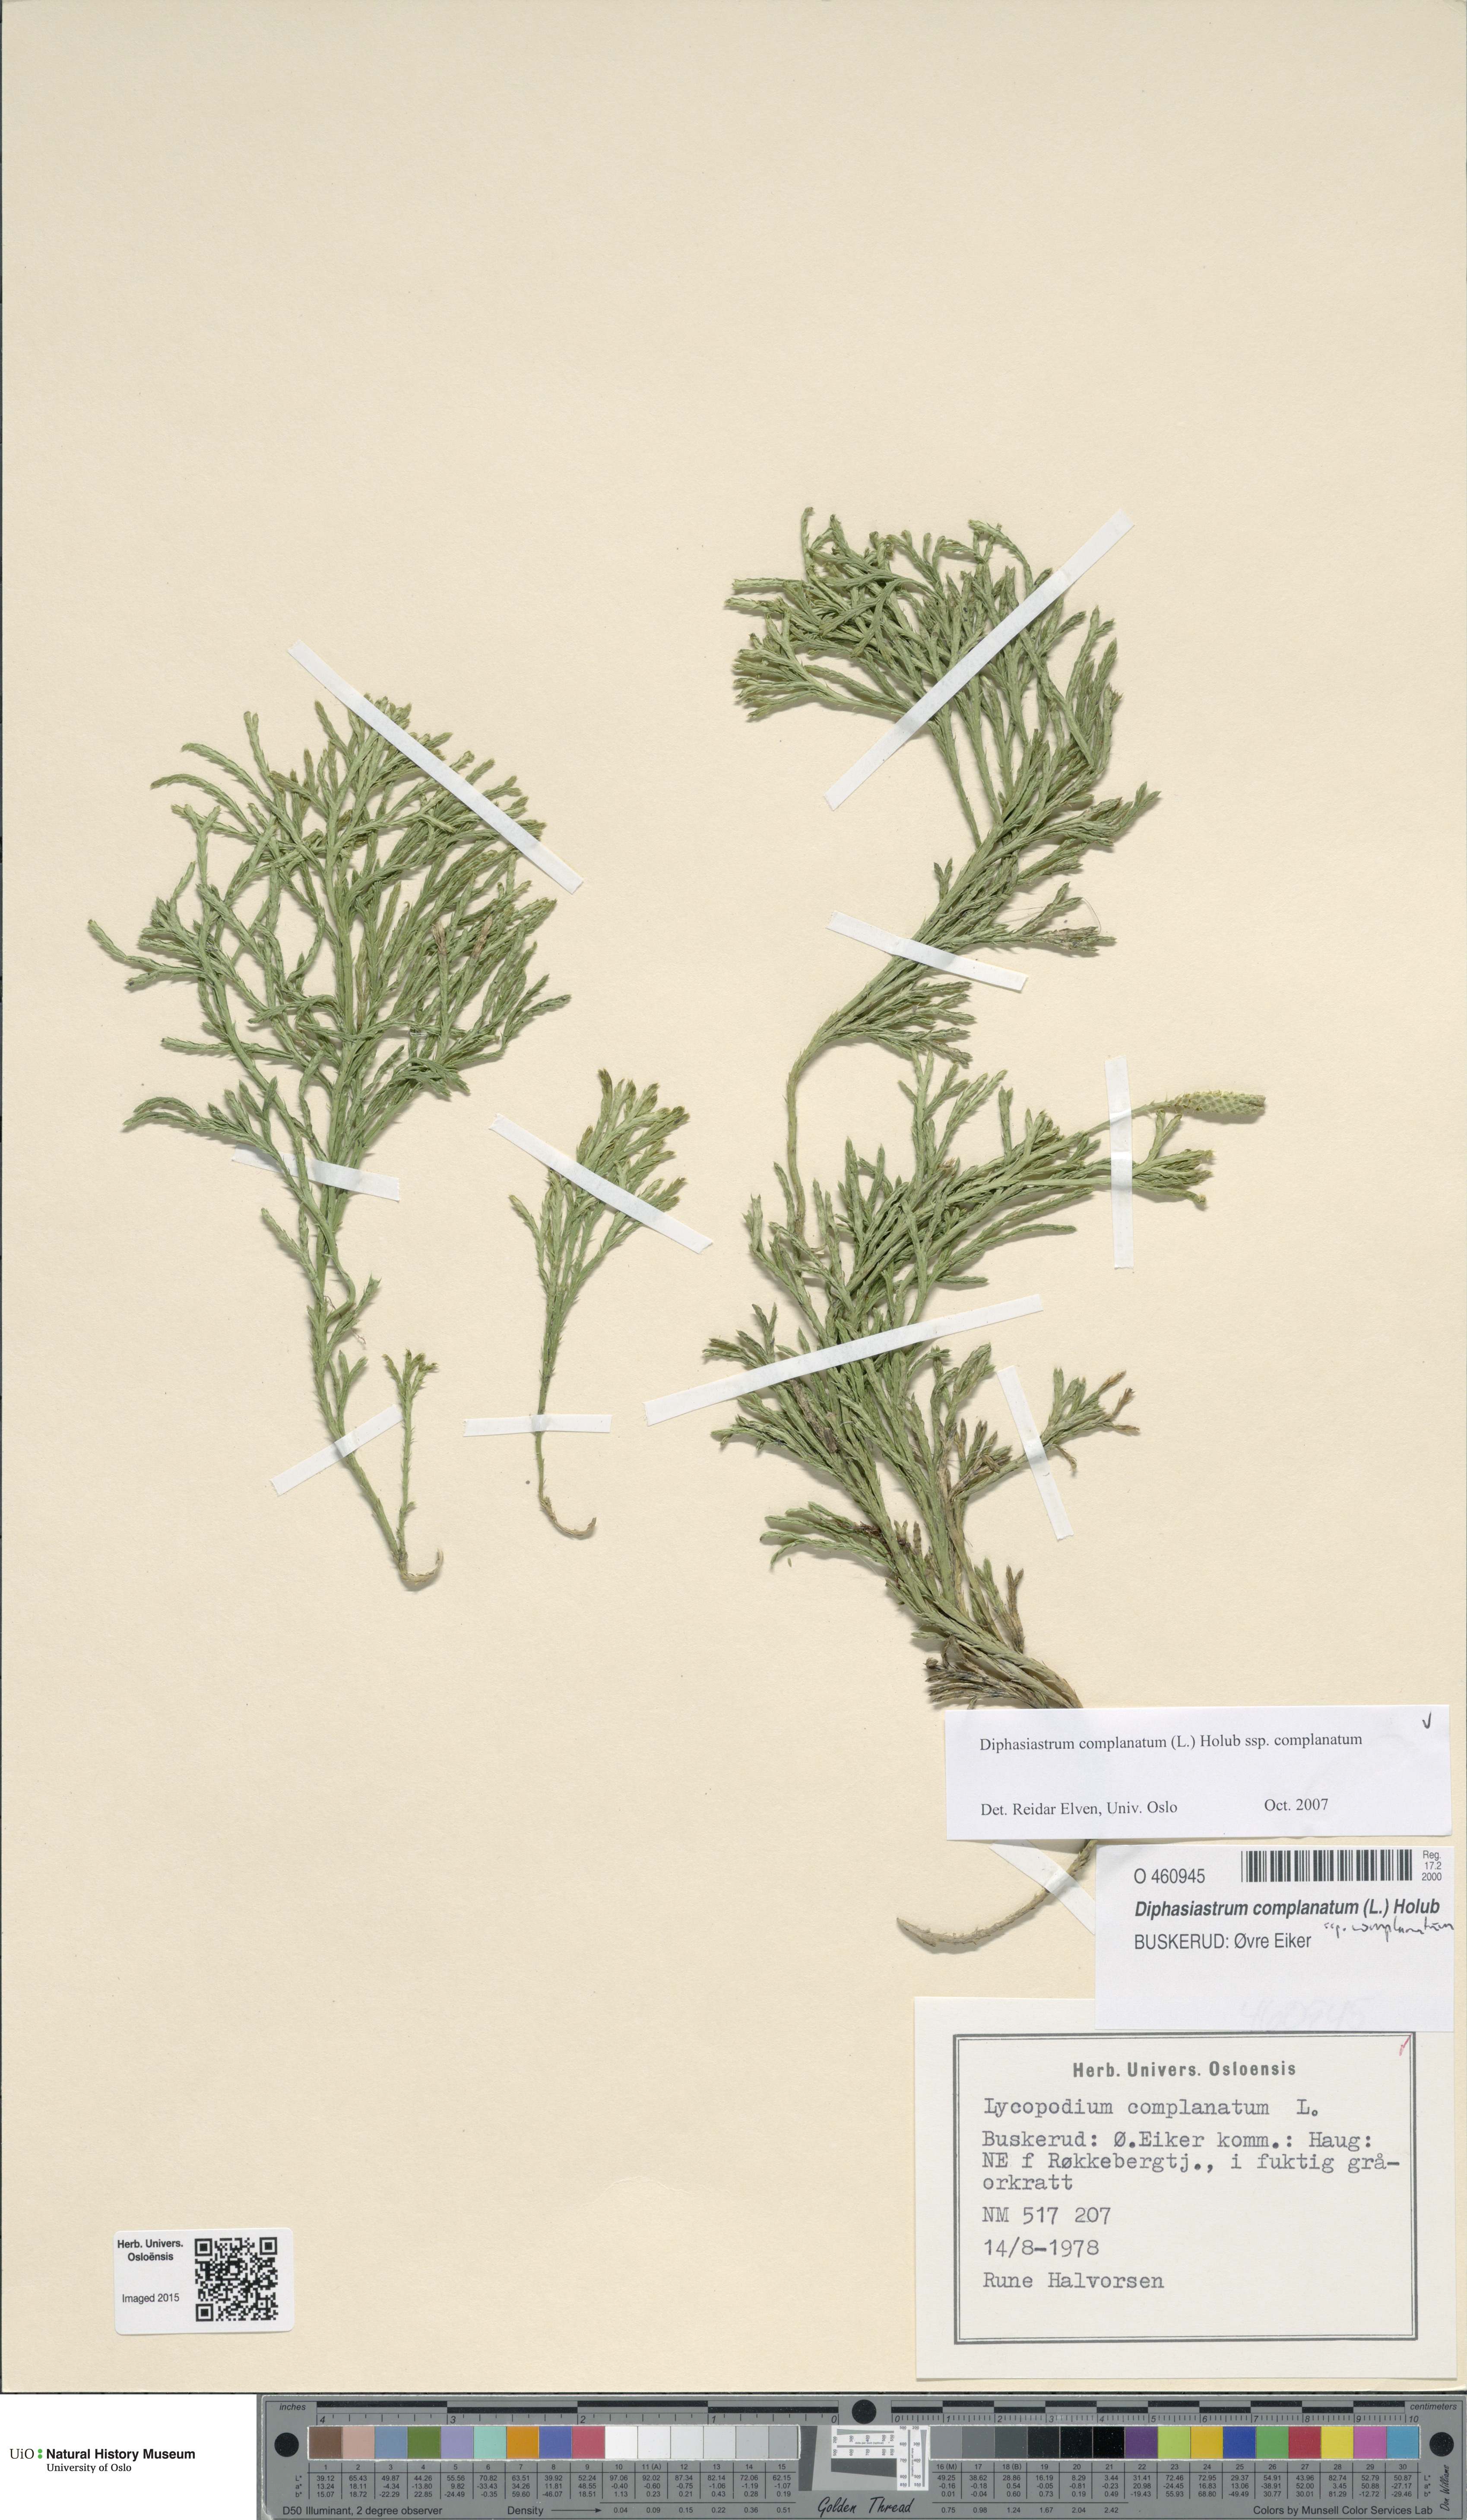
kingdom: Plantae
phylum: Tracheophyta
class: Lycopodiopsida
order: Lycopodiales
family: Lycopodiaceae
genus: Diphasiastrum
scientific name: Diphasiastrum complanatum
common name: Northern running-pine
